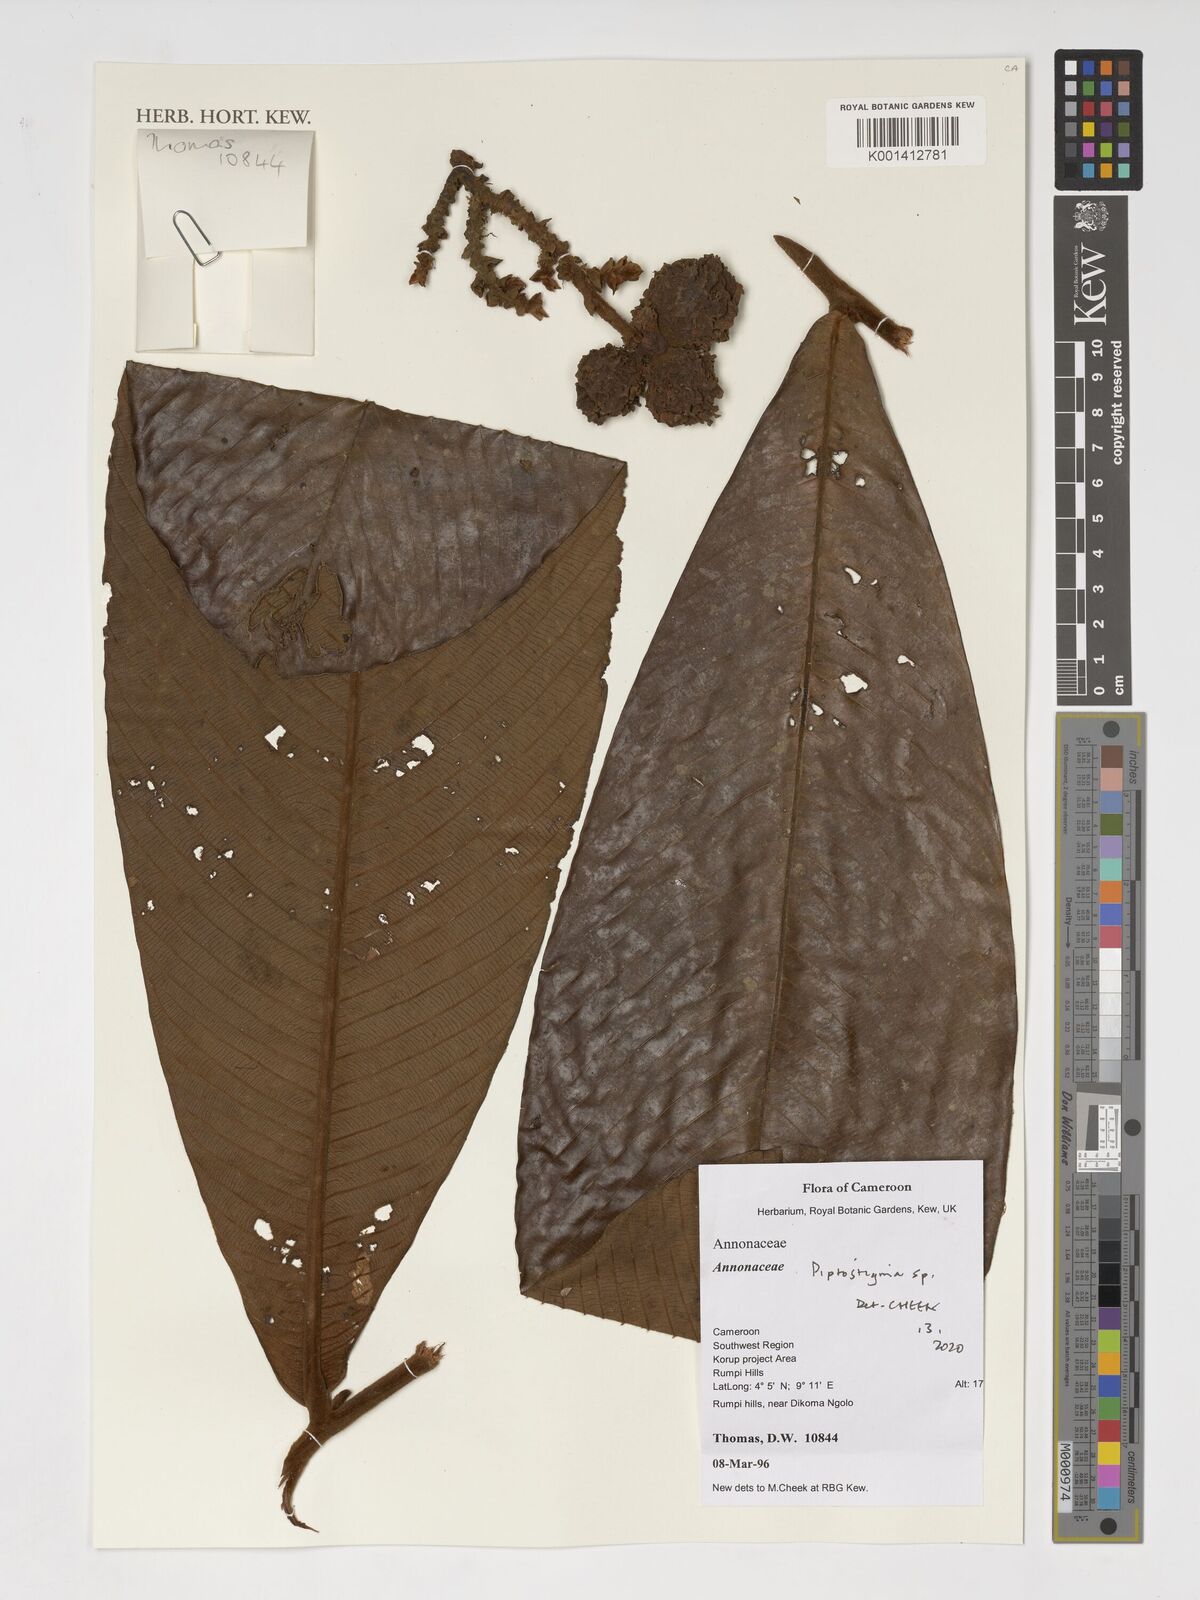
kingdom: Plantae
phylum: Tracheophyta
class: Magnoliopsida
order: Magnoliales
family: Annonaceae
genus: Piptostigma
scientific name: Piptostigma
